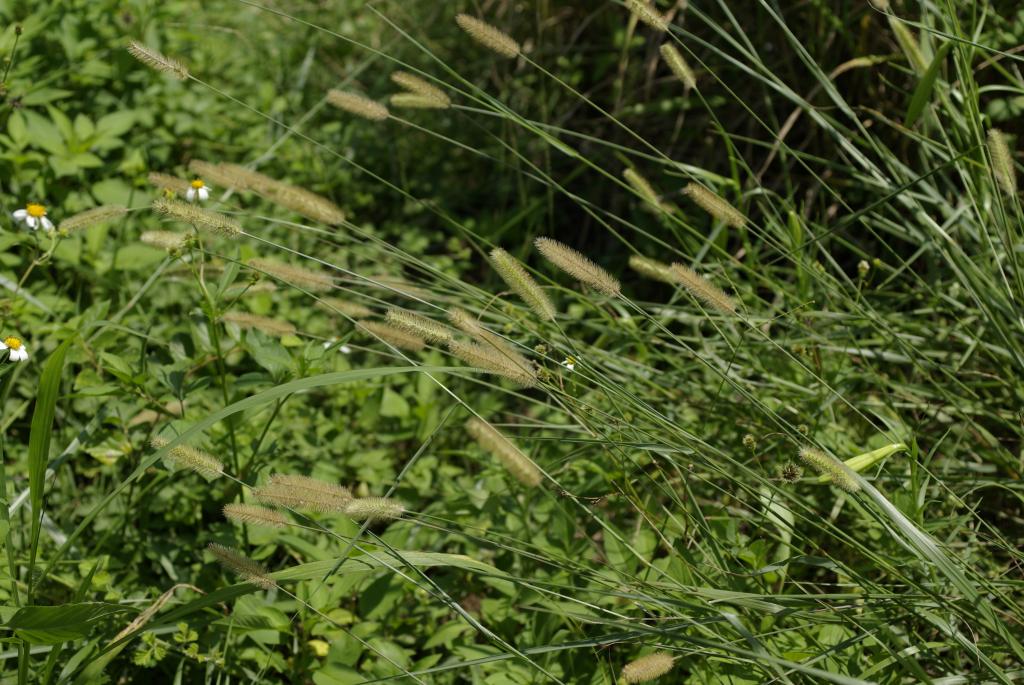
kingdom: Plantae
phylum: Tracheophyta
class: Liliopsida
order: Poales
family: Poaceae
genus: Setaria
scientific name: Setaria parviflora
